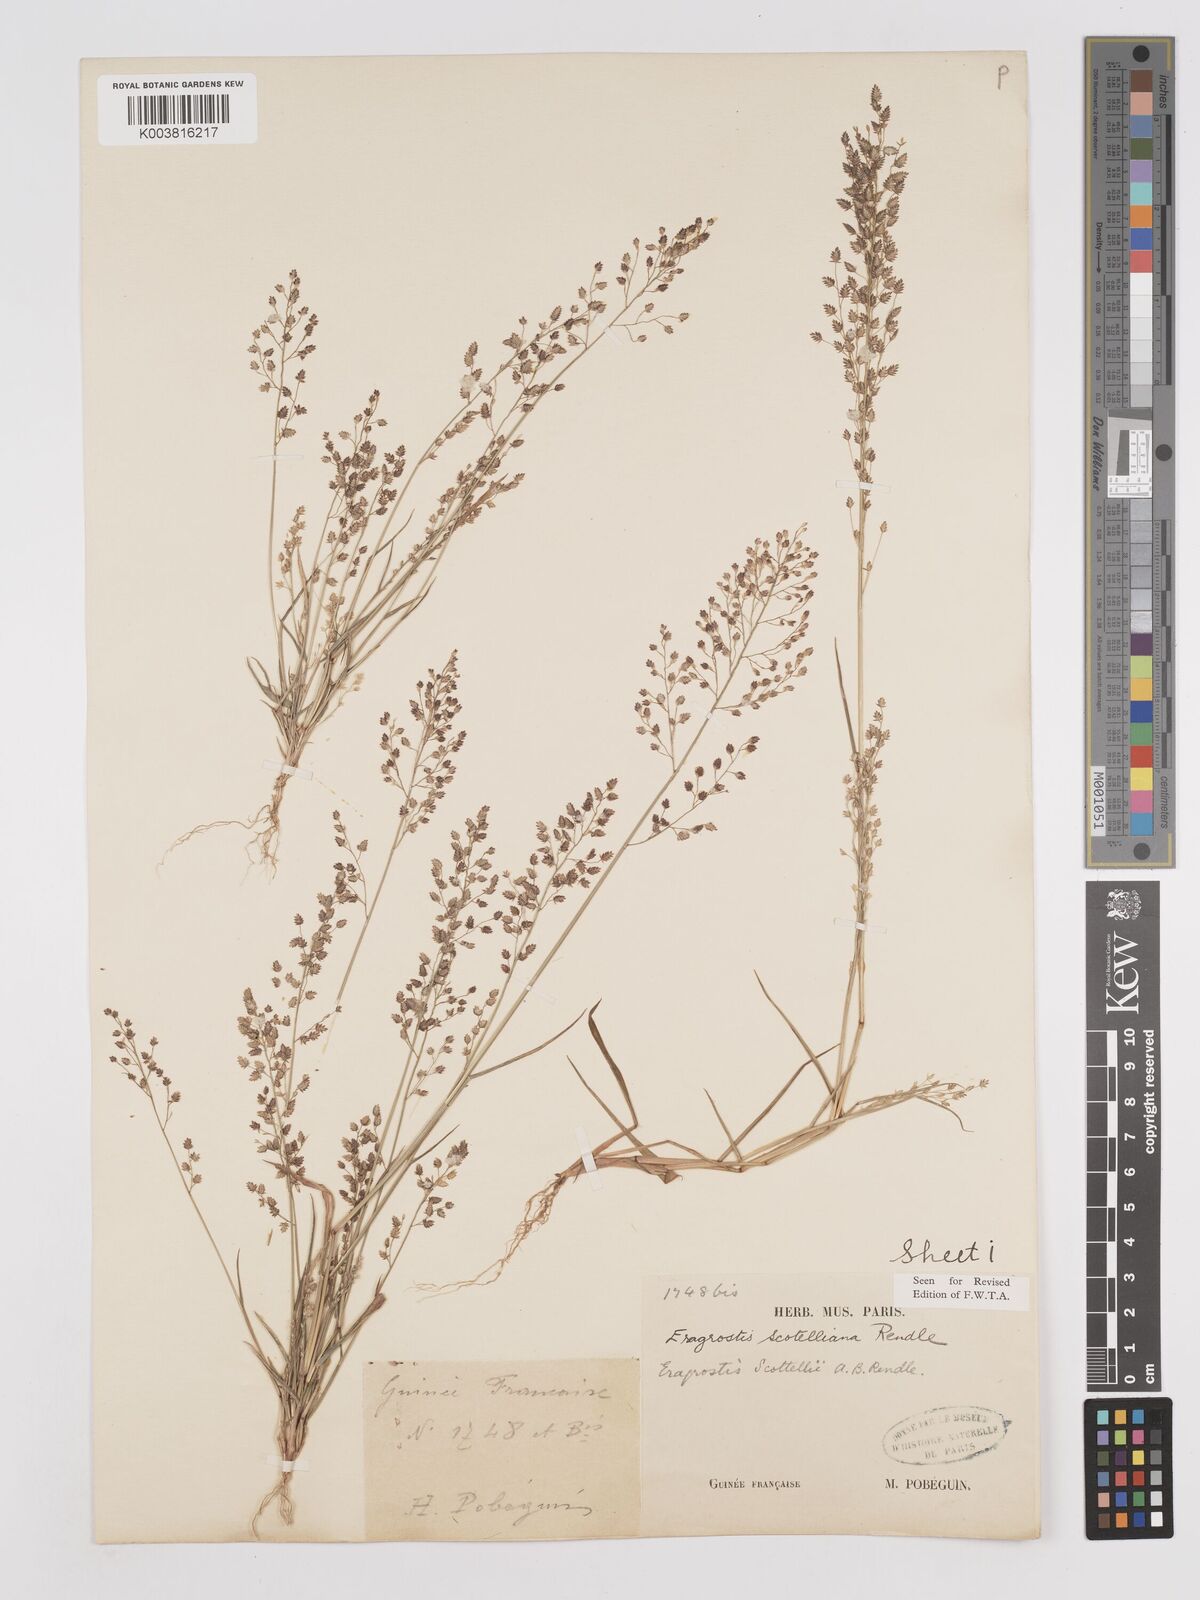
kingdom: Plantae
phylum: Tracheophyta
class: Liliopsida
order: Poales
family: Poaceae
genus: Eragrostis
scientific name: Eragrostis scotelliana
